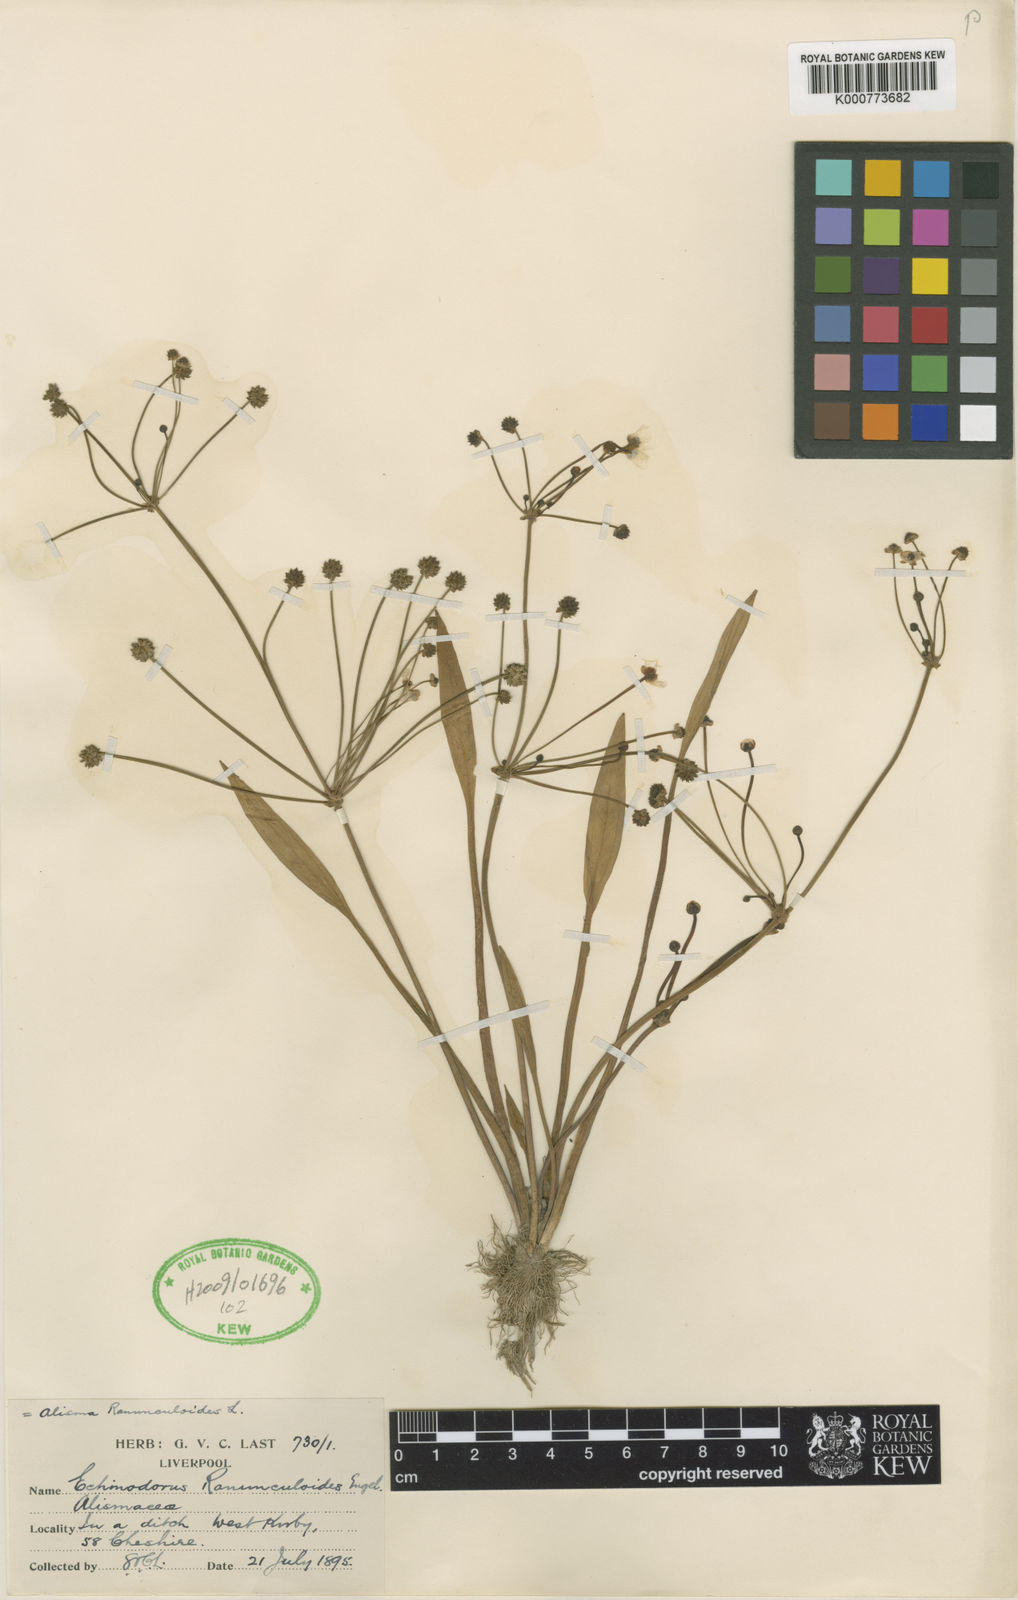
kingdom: Plantae
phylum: Tracheophyta
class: Liliopsida
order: Alismatales
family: Alismataceae
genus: Baldellia
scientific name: Baldellia ranunculoides
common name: Lesser water-plantain
